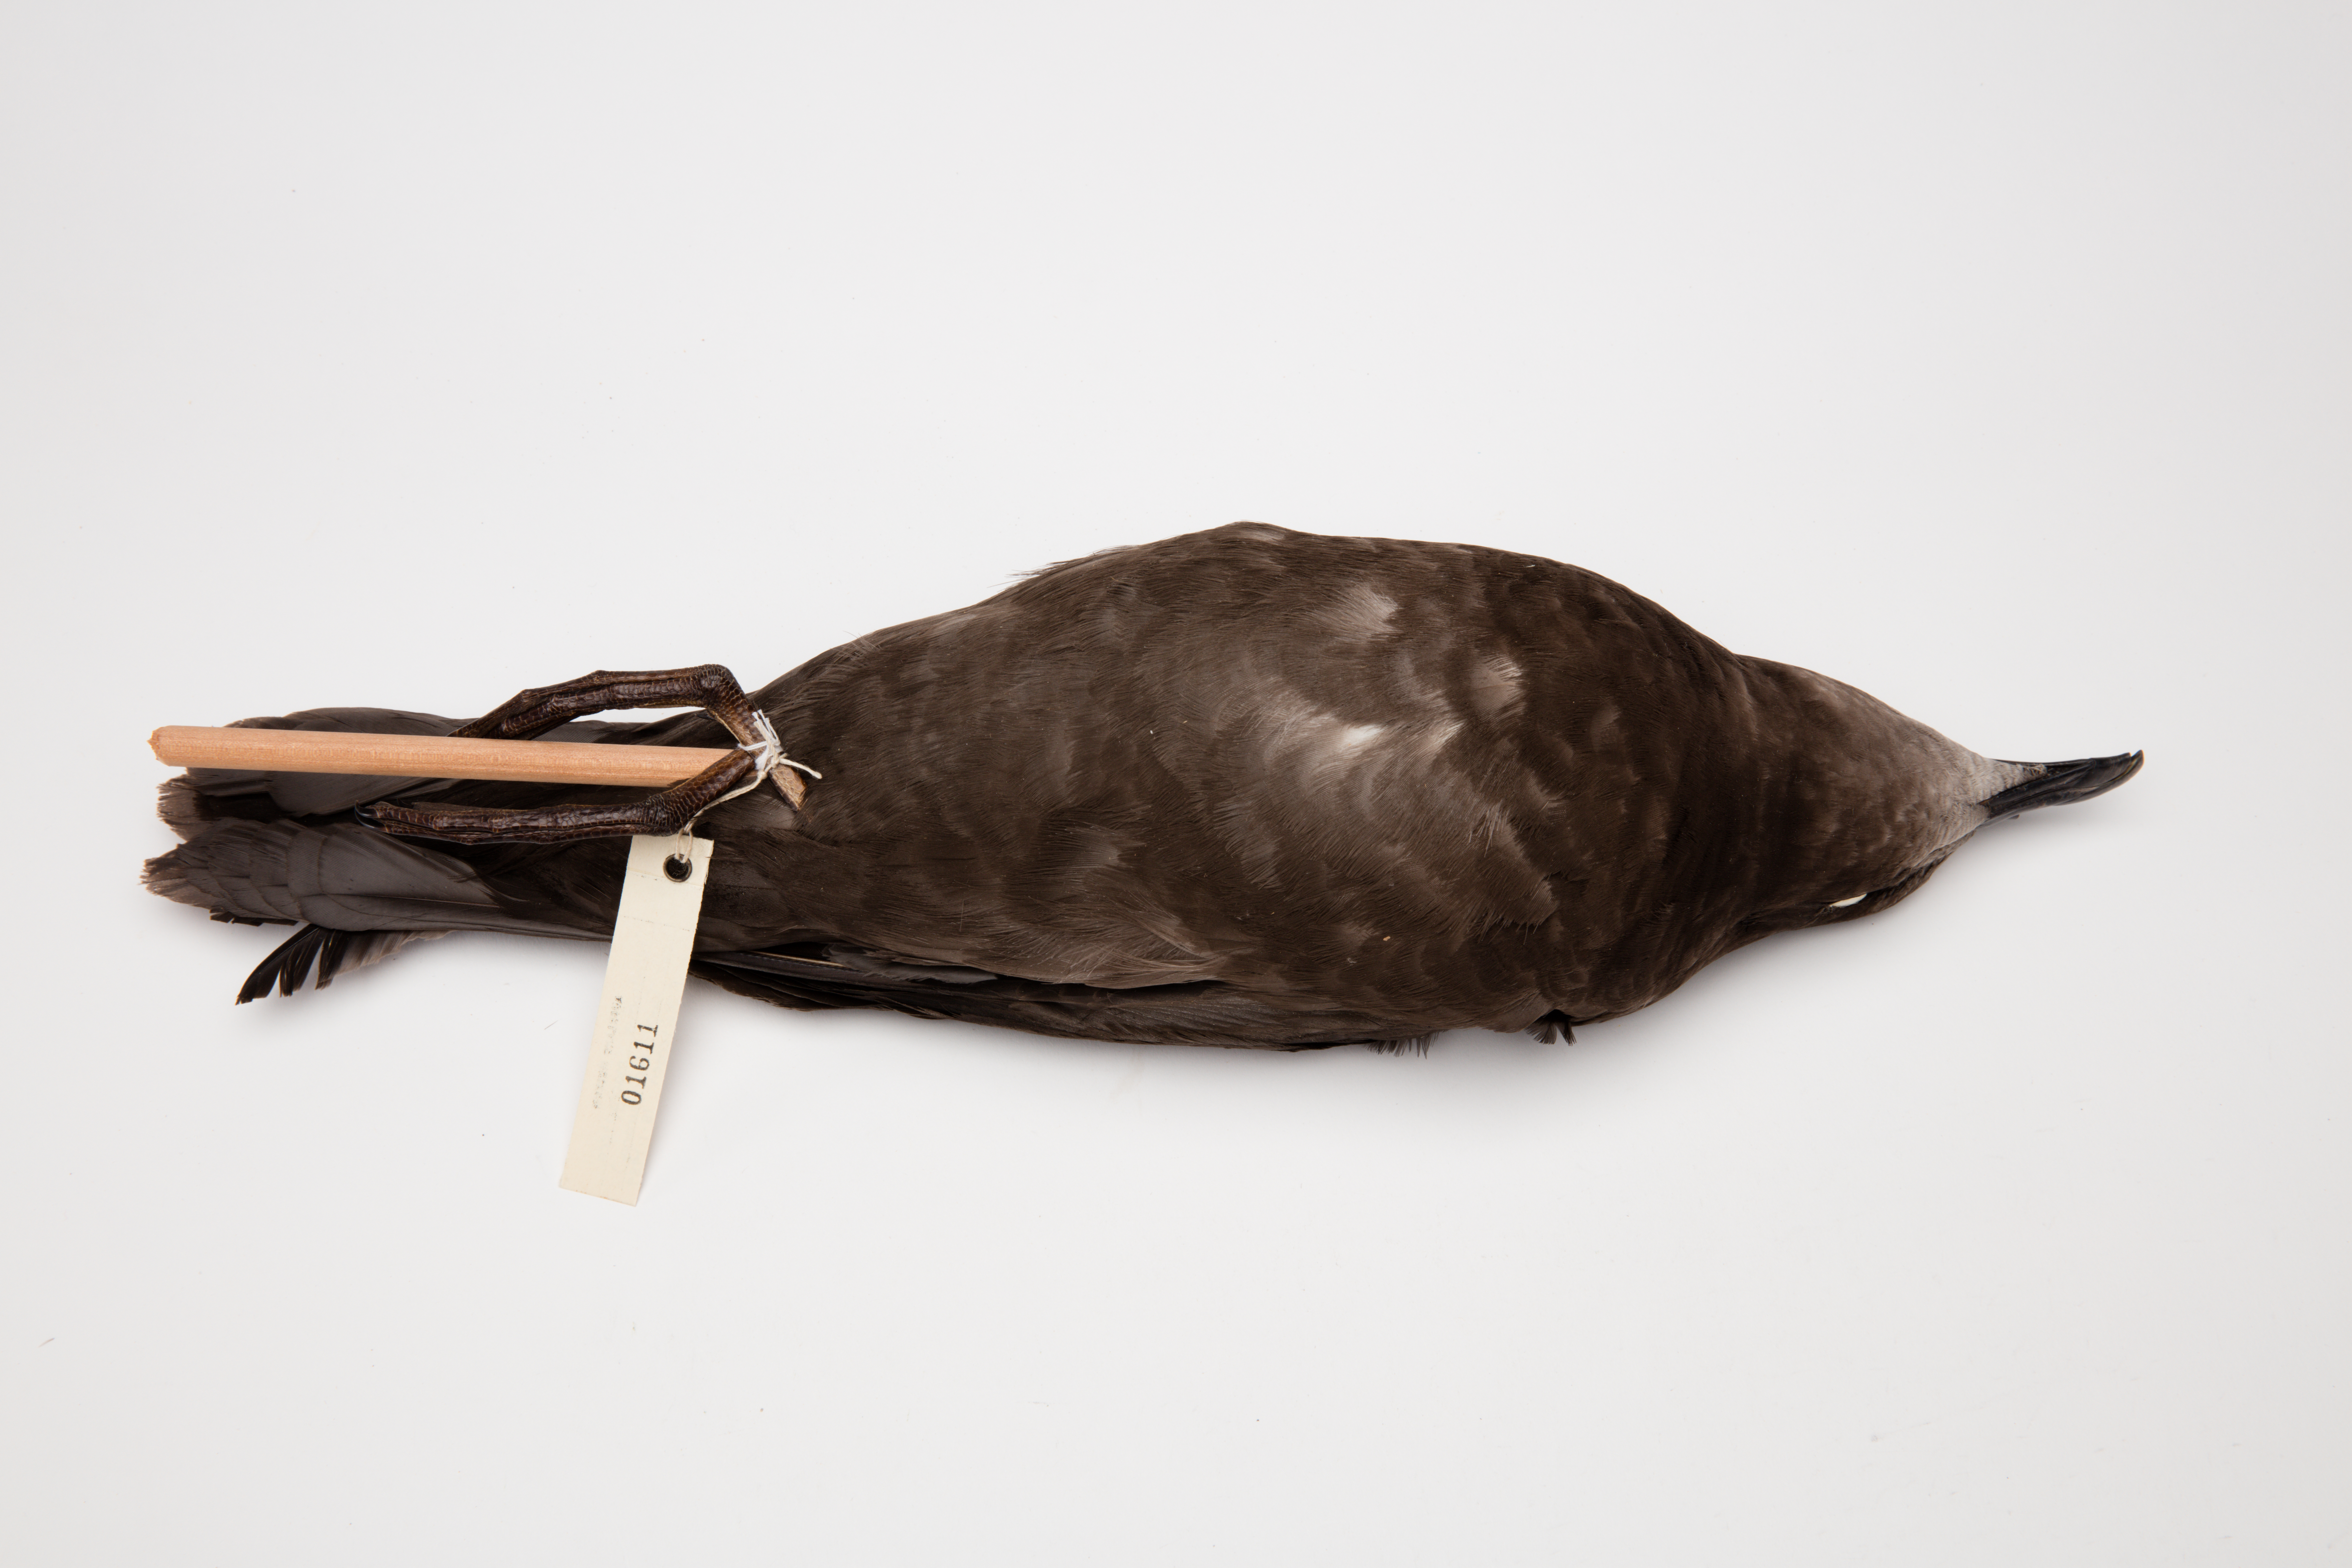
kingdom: Animalia
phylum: Chordata
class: Aves
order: Procellariiformes
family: Procellariidae
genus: Pterodroma
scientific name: Pterodroma macroptera
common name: Great-winged petrel
